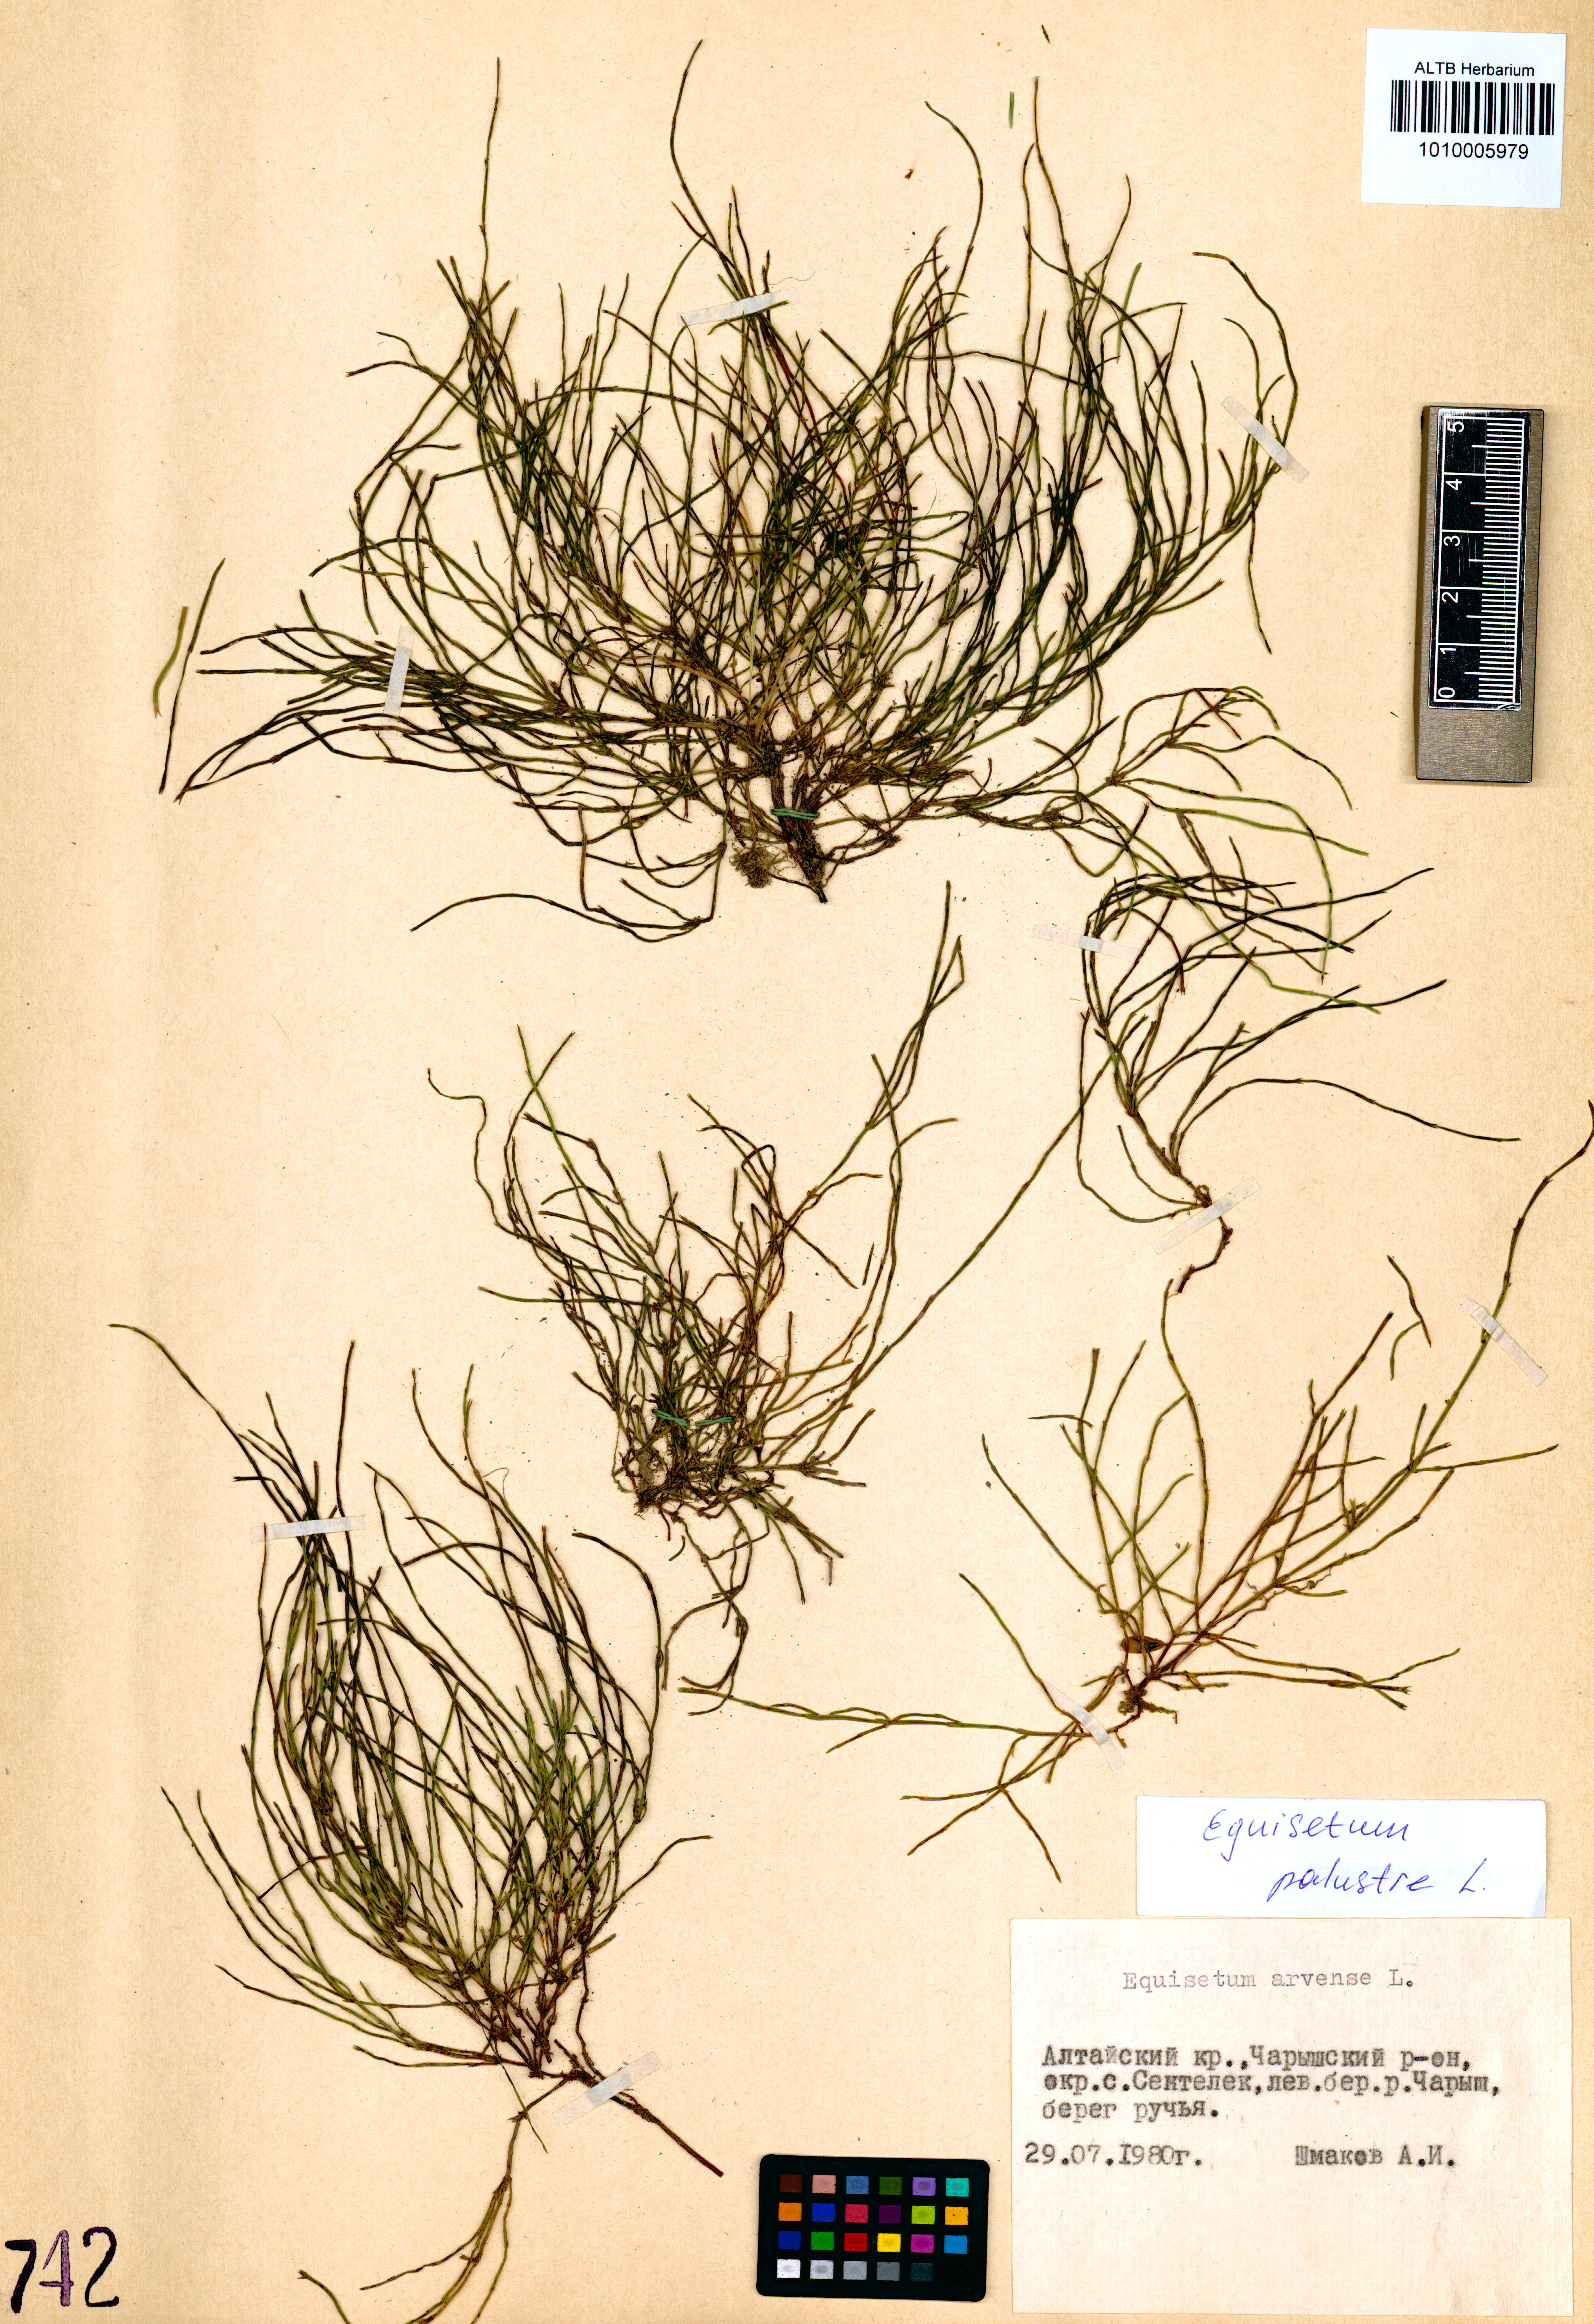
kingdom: Plantae
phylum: Tracheophyta
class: Polypodiopsida
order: Equisetales
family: Equisetaceae
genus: Equisetum
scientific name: Equisetum palustre
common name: Marsh horsetail
